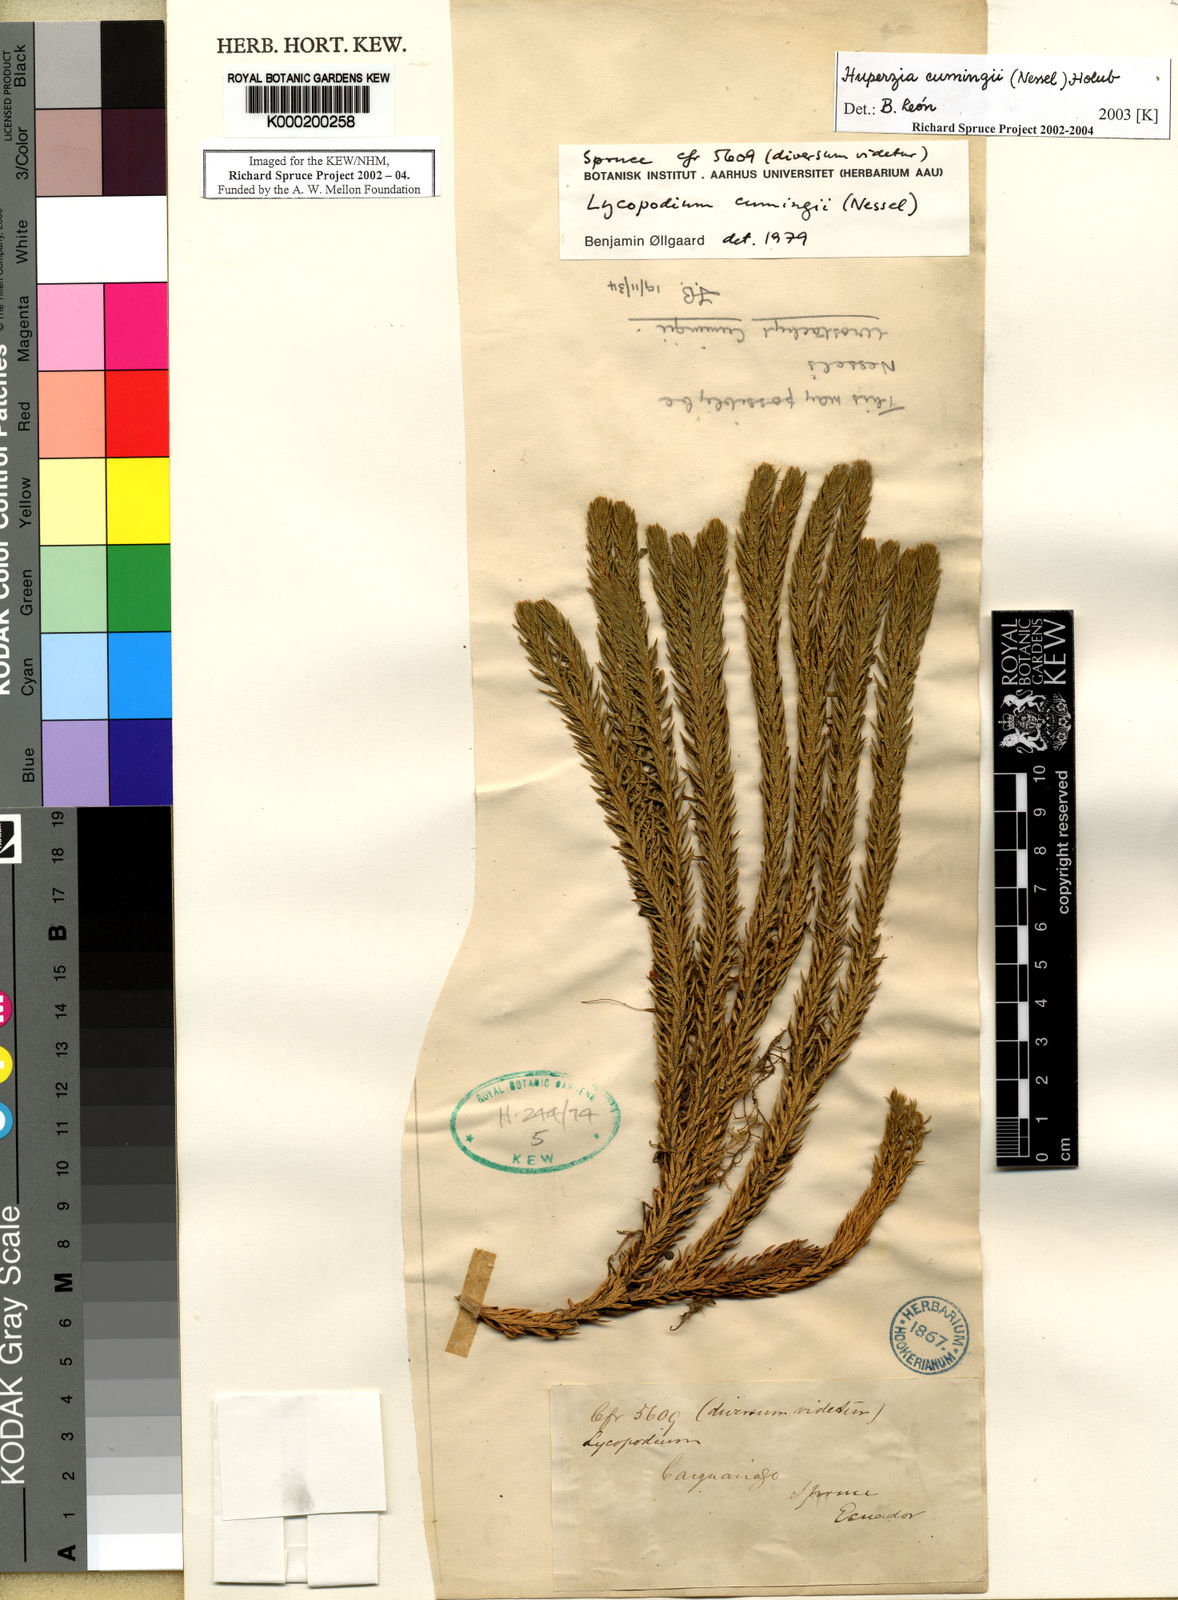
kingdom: Plantae
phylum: Tracheophyta
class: Lycopodiopsida
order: Lycopodiales
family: Lycopodiaceae
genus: Phlegmariurus
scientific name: Phlegmariurus cumingii
